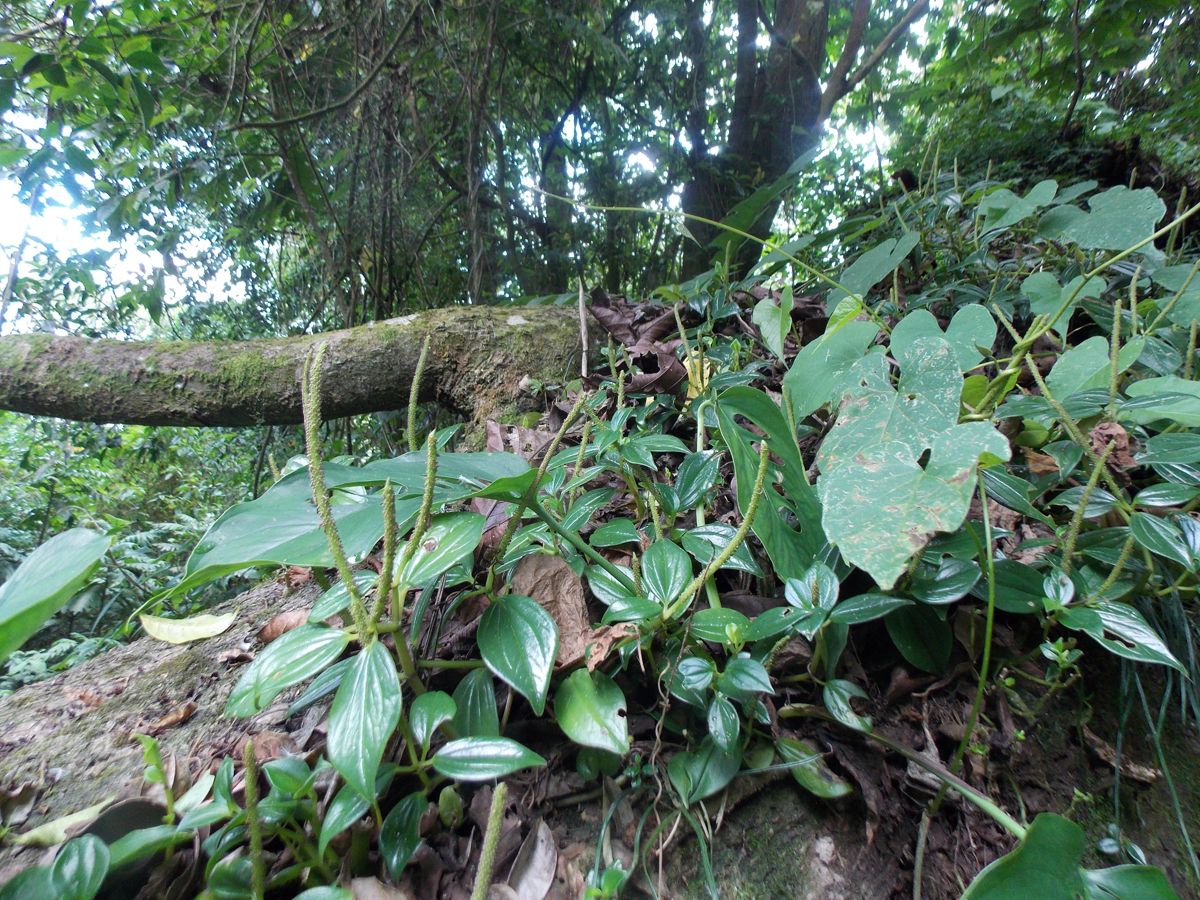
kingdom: Plantae
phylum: Tracheophyta
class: Magnoliopsida
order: Piperales
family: Piperaceae
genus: Peperomia
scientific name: Peperomia
